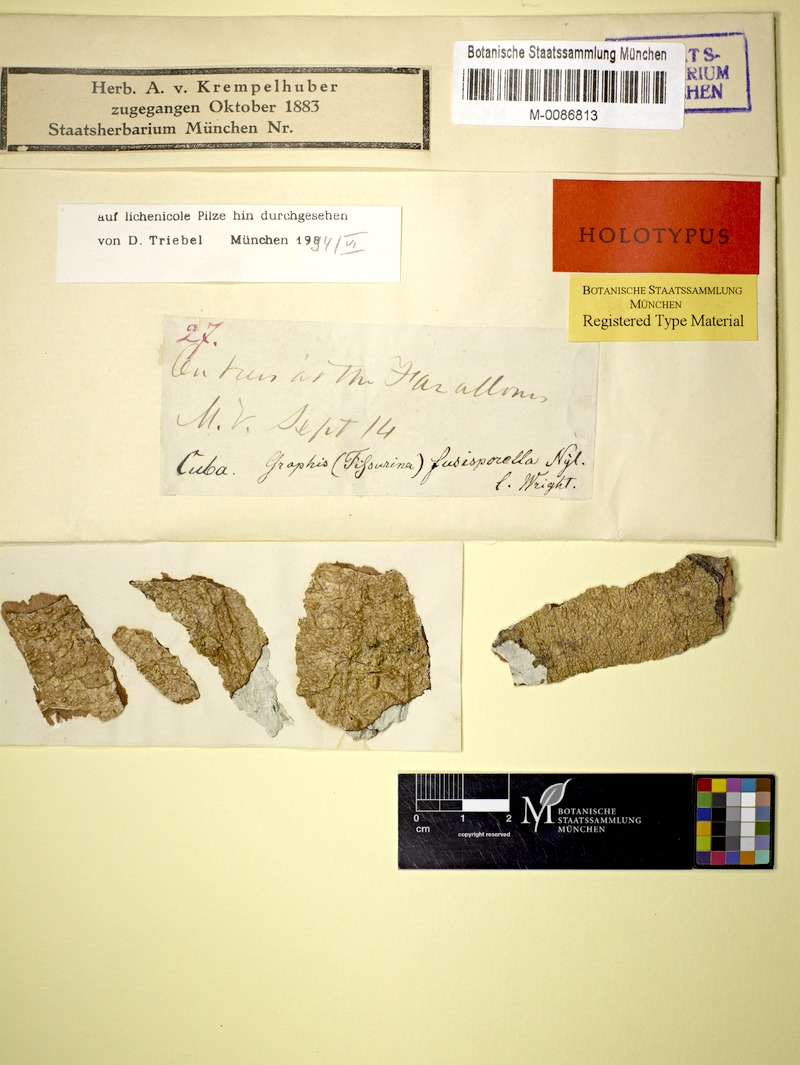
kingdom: Fungi
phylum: Ascomycota
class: Lecanoromycetes
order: Ostropales
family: Spirographaceae
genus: Spirographa
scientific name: Spirographa fusisporella
